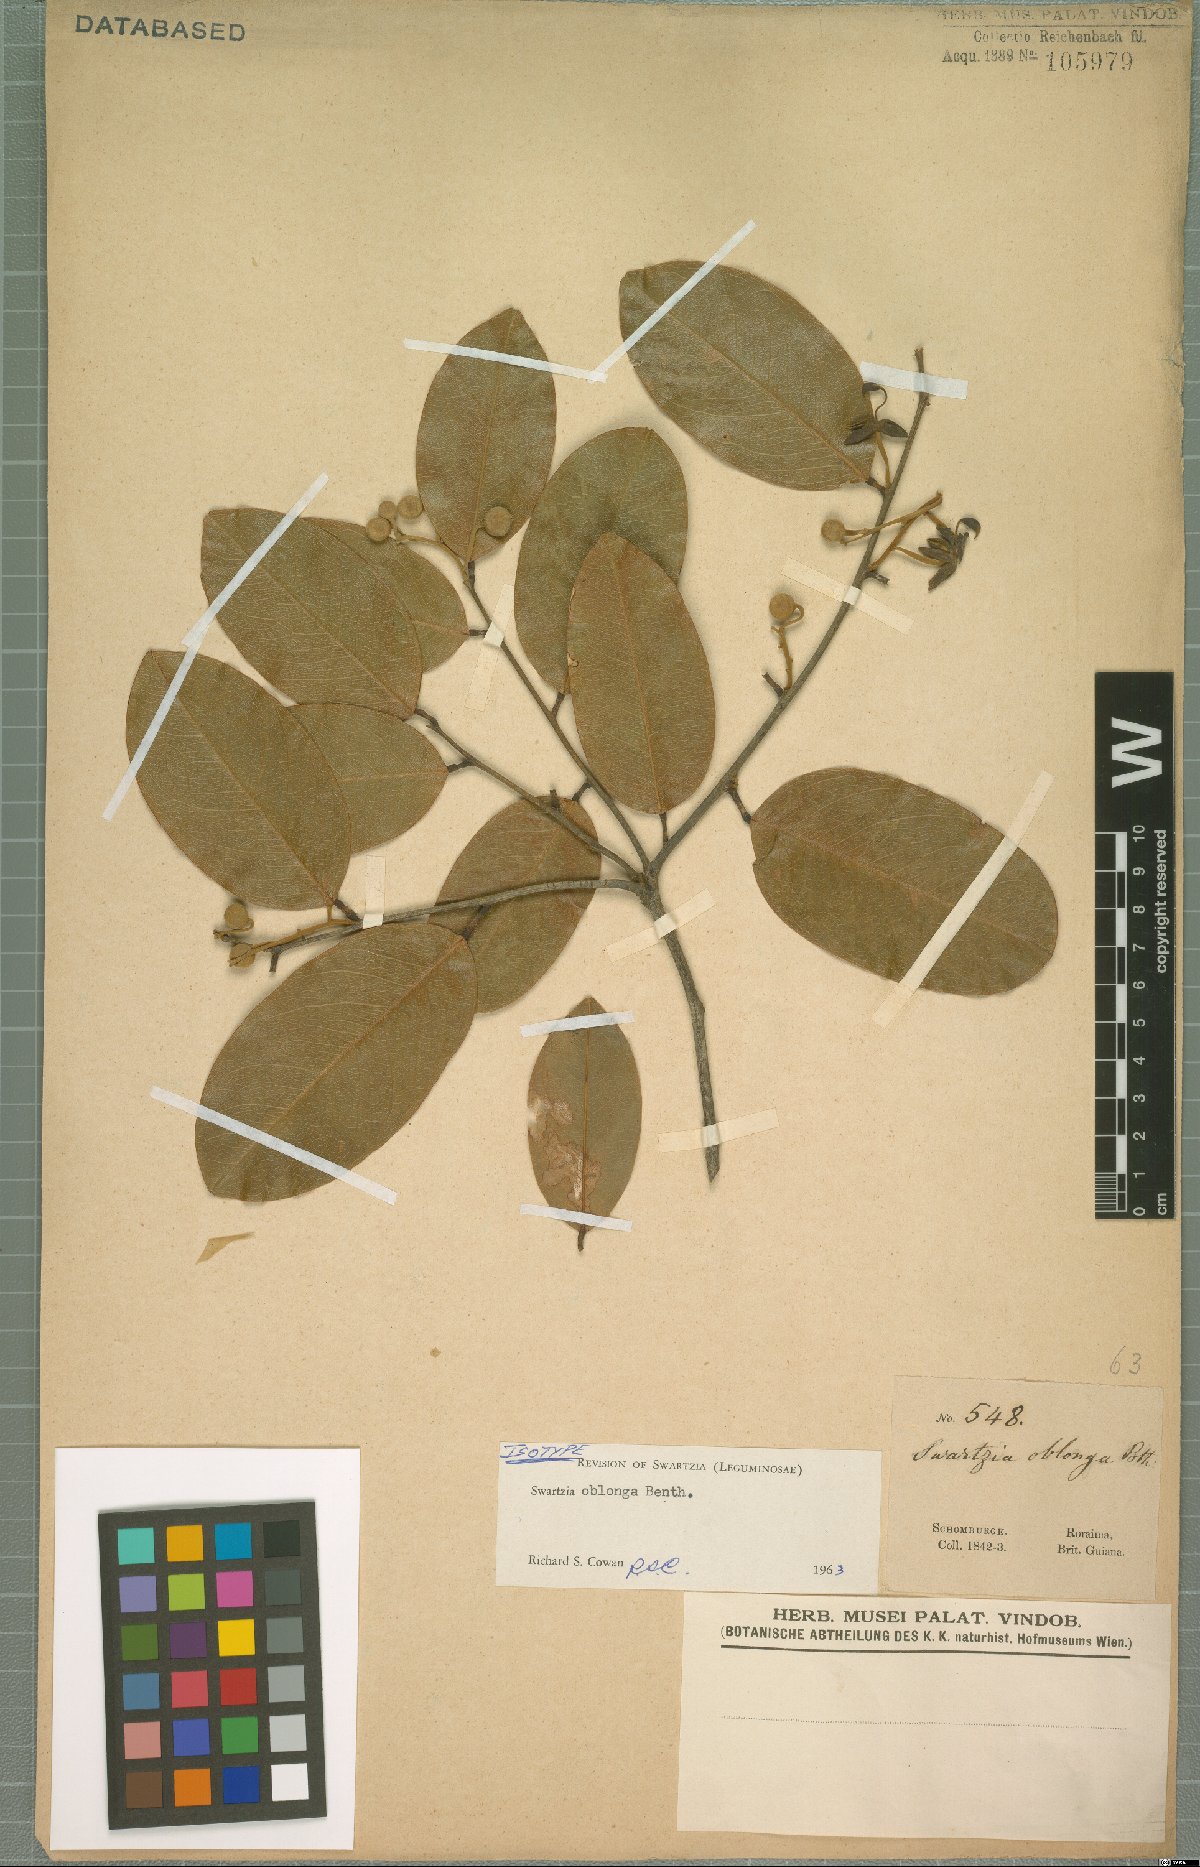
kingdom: Plantae
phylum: Tracheophyta
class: Magnoliopsida
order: Fabales
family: Fabaceae
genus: Swartzia
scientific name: Swartzia oblonga
